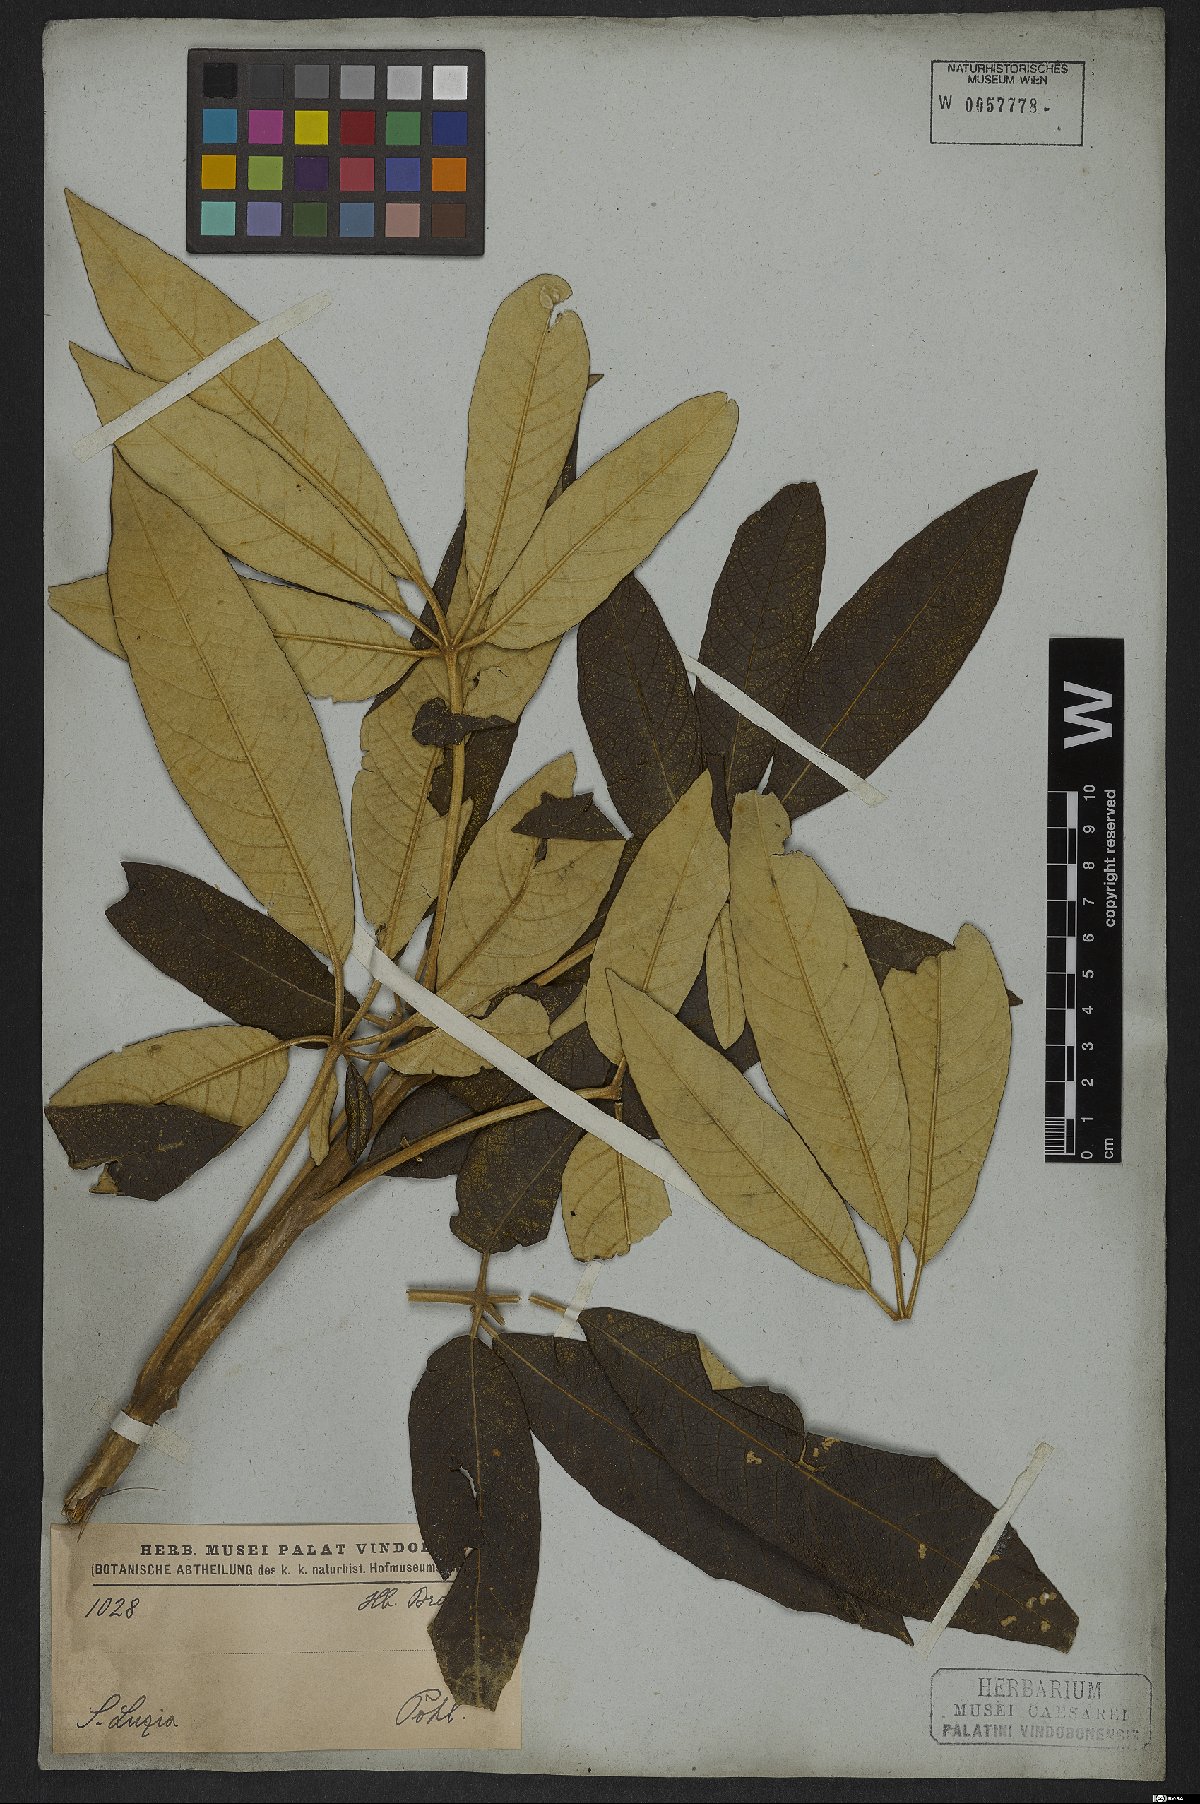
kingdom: Plantae
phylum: Tracheophyta
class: Magnoliopsida
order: Lamiales
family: Bignoniaceae
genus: Zeyheria
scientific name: Zeyheria montana
